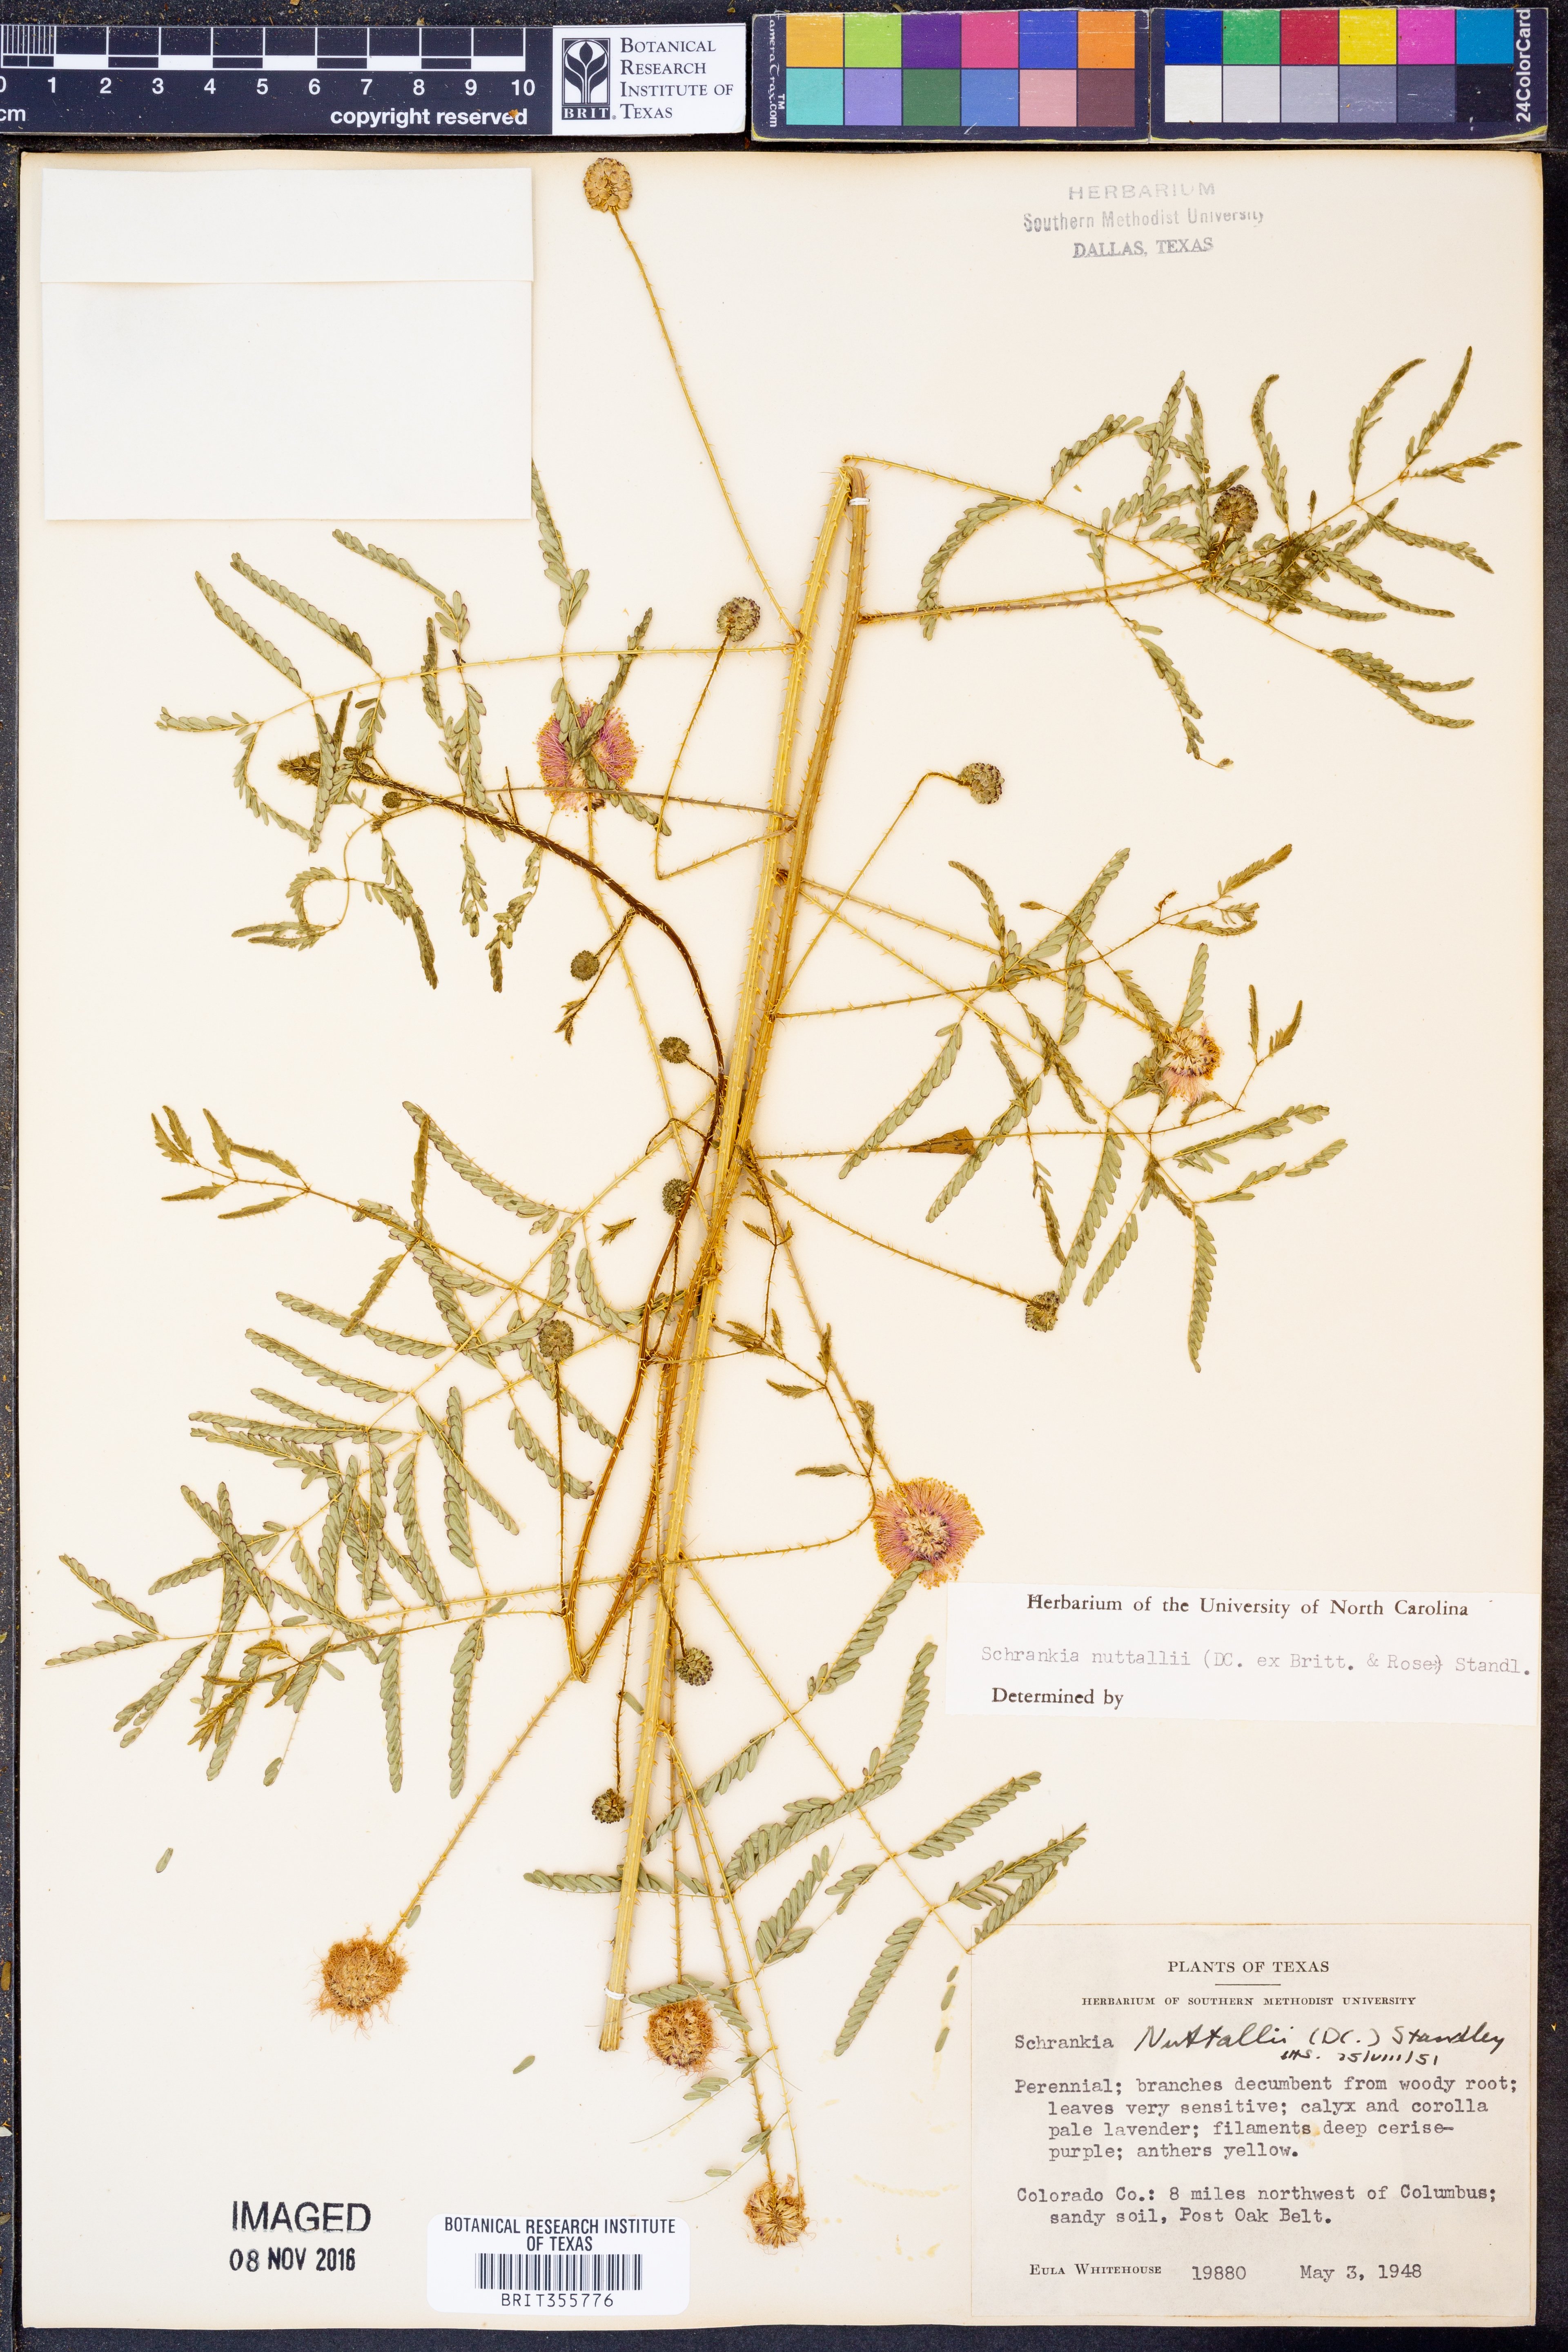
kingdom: Plantae
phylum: Tracheophyta
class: Magnoliopsida
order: Fabales
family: Fabaceae
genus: Mimosa
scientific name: Mimosa quadrivalvis
